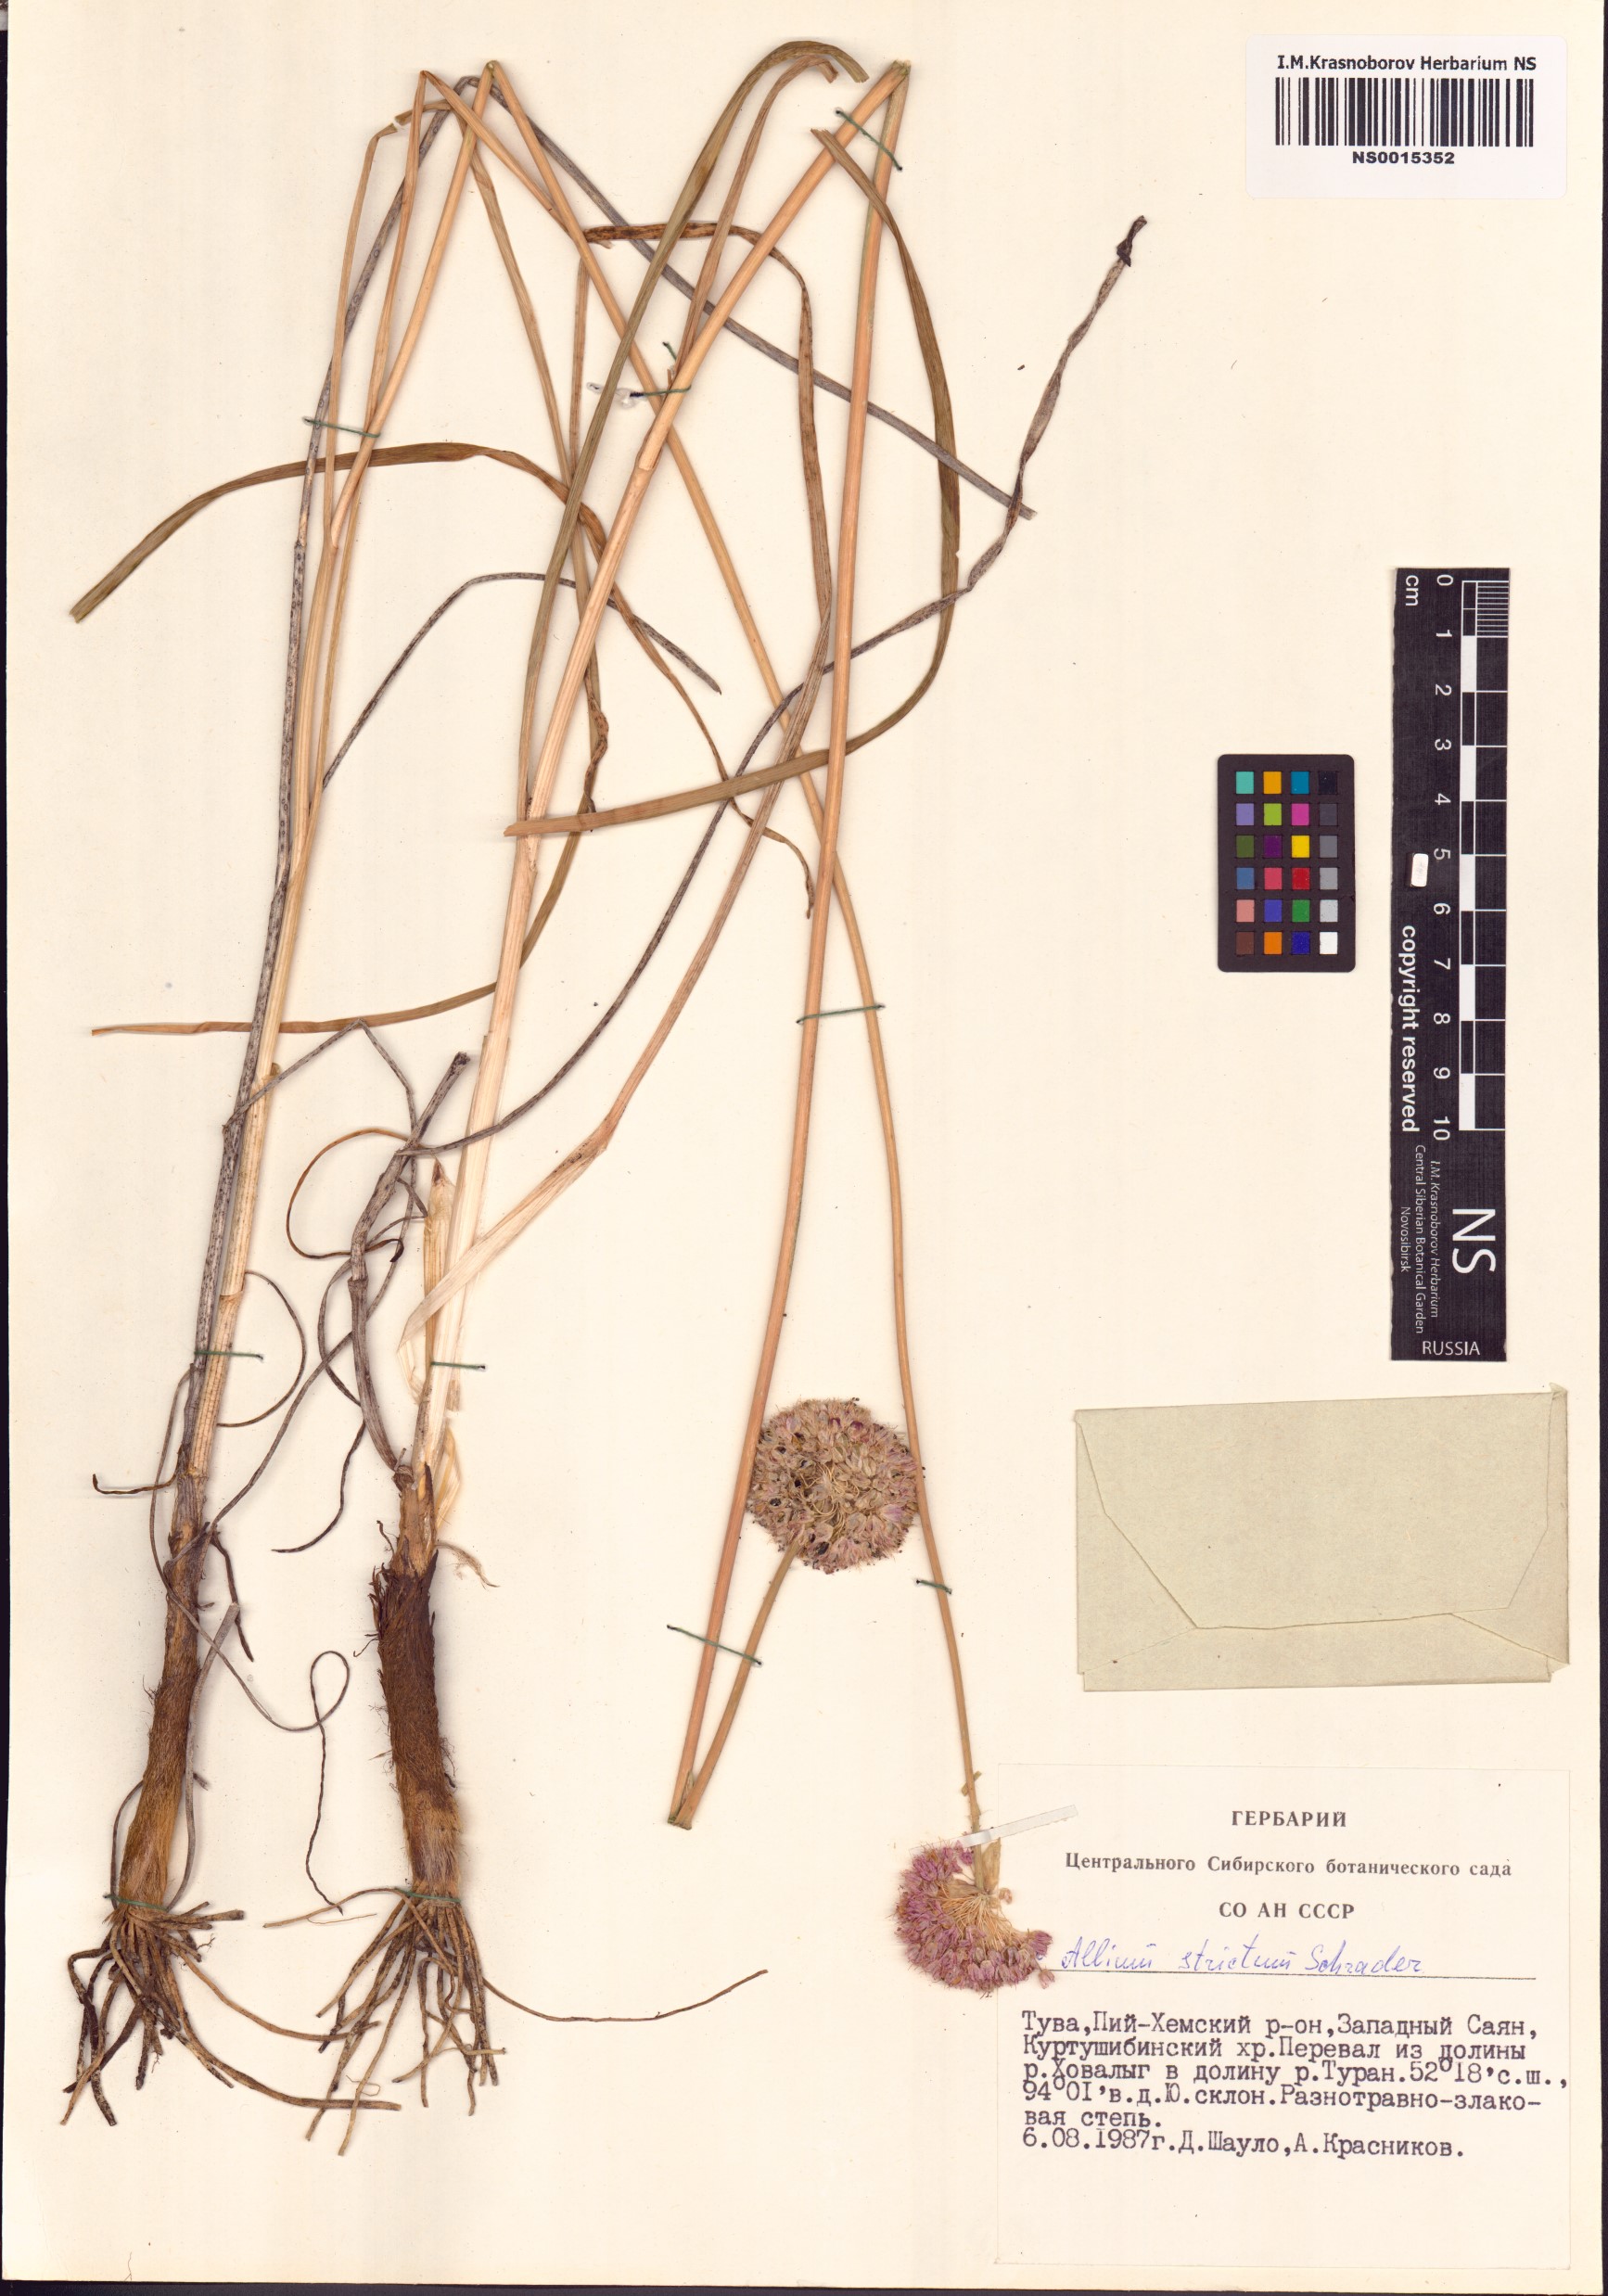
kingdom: Plantae
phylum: Tracheophyta
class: Liliopsida
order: Asparagales
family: Amaryllidaceae
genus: Allium
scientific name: Allium strictum
